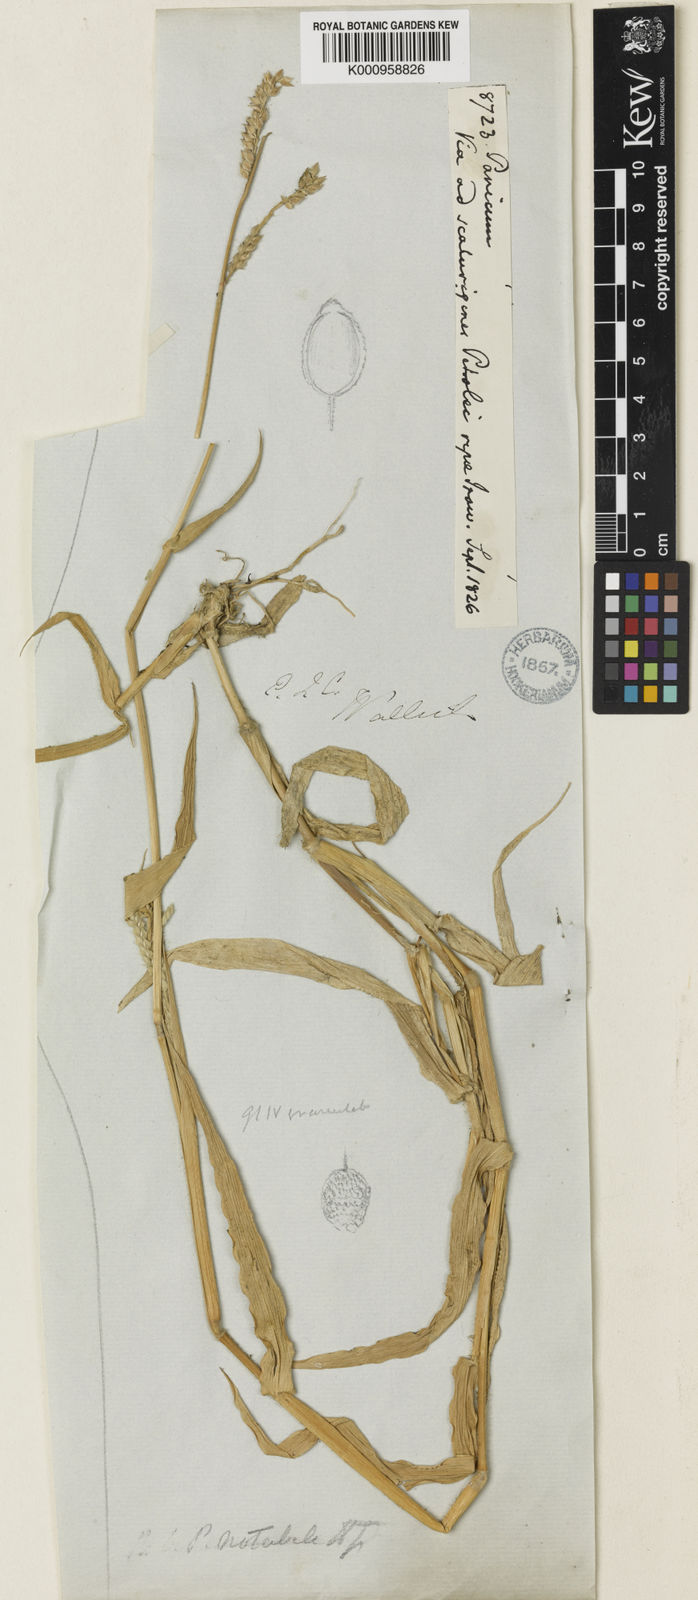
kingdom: Plantae
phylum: Tracheophyta
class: Liliopsida
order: Poales
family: Poaceae
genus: Urochloa
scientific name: Urochloa trichopus
